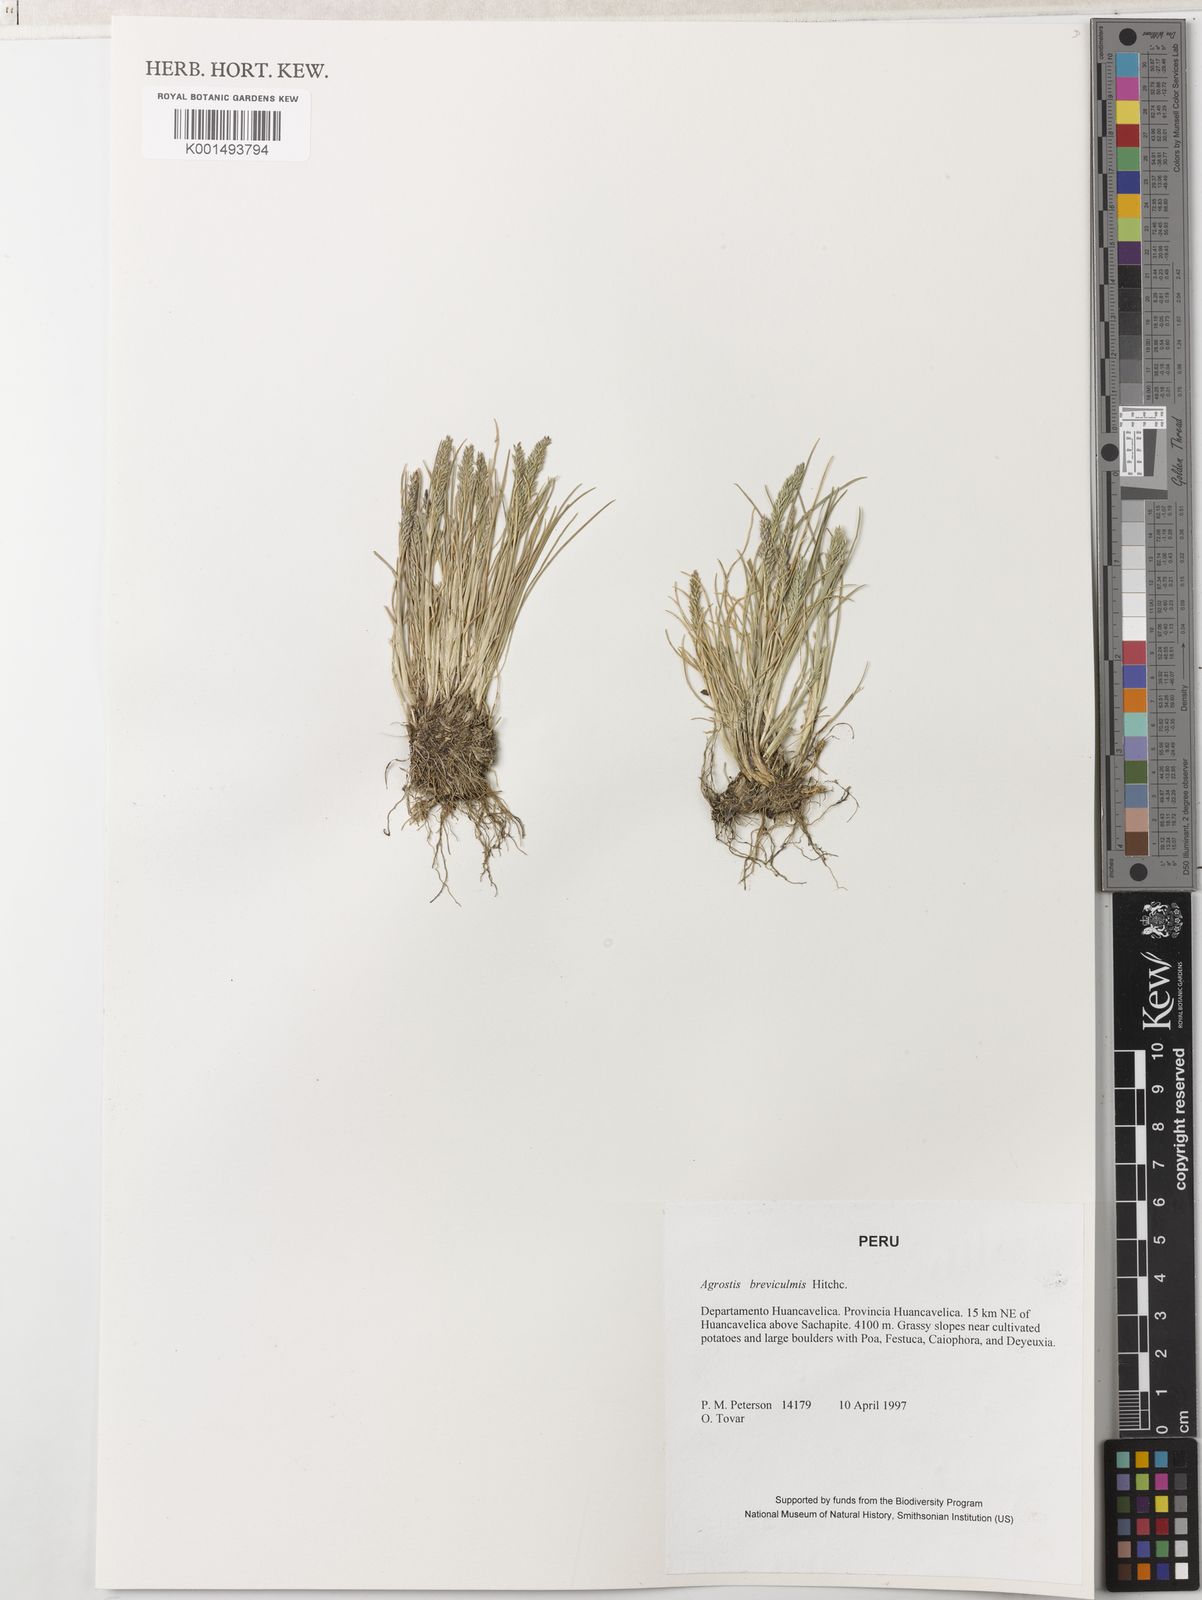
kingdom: Plantae
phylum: Tracheophyta
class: Liliopsida
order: Poales
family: Poaceae
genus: Agrostis
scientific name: Agrostis breviculmis
